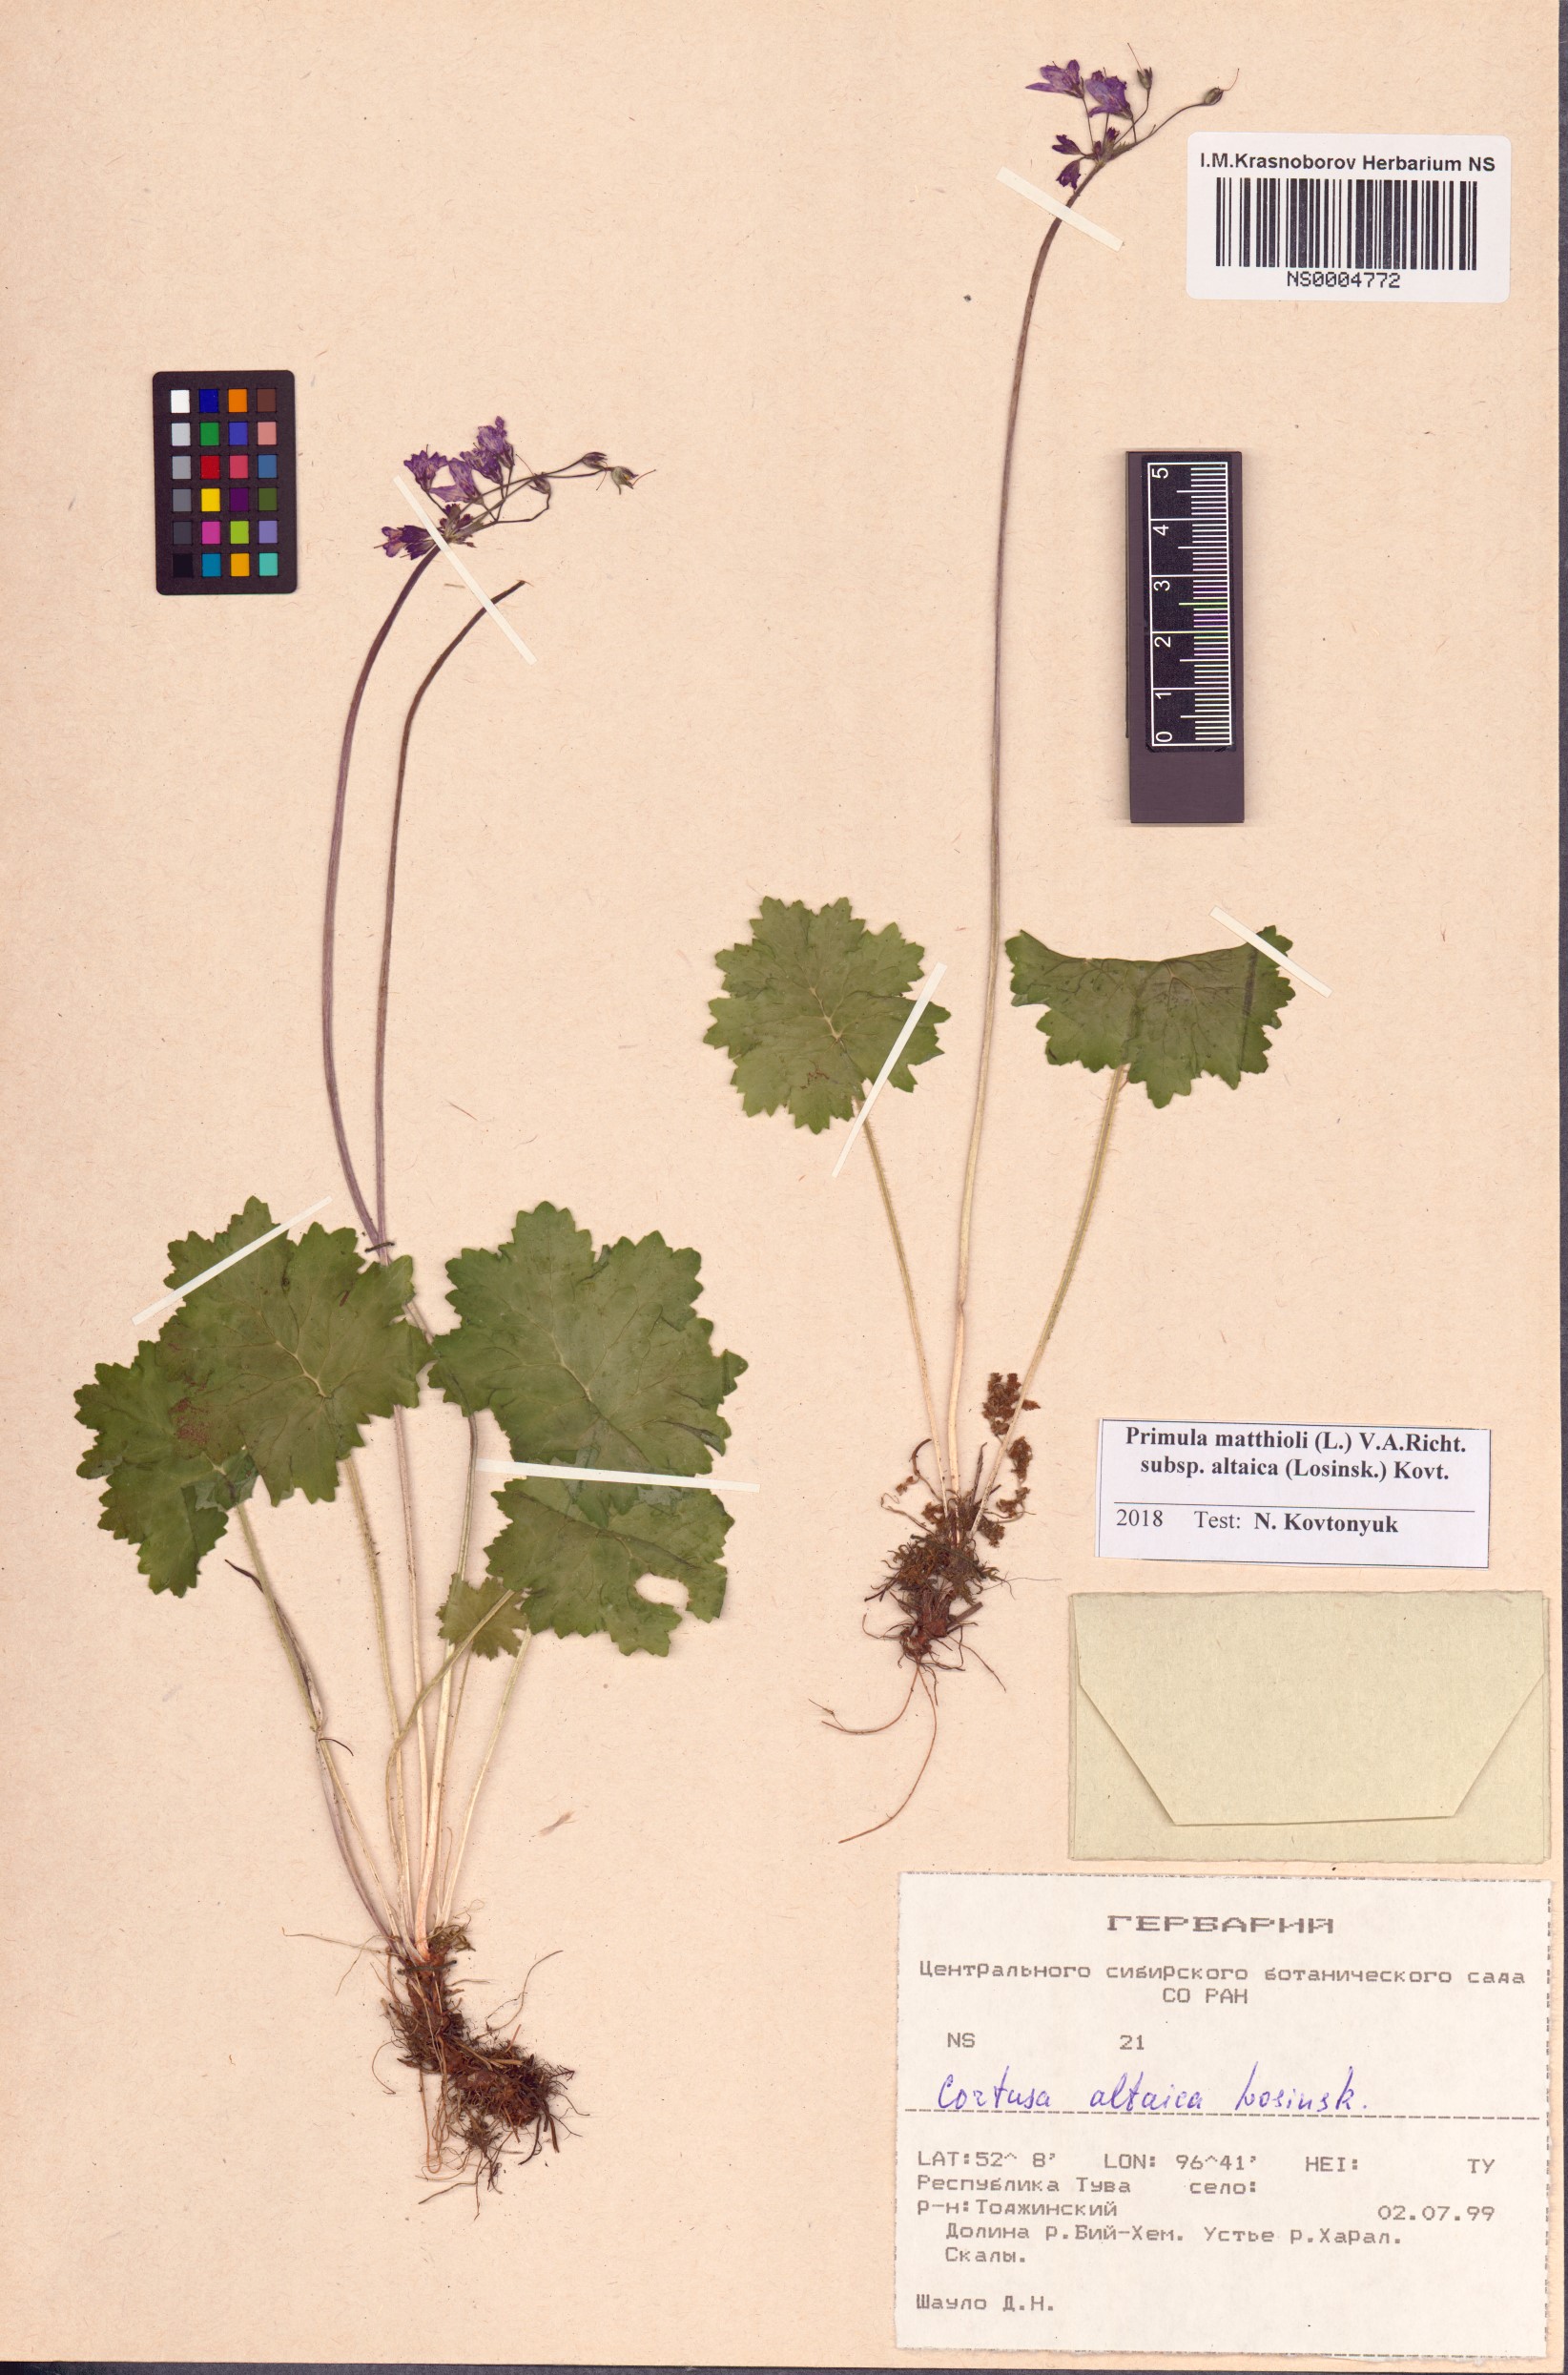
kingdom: Plantae
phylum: Tracheophyta
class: Magnoliopsida
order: Ericales
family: Primulaceae
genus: Primula
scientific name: Primula matthioli
